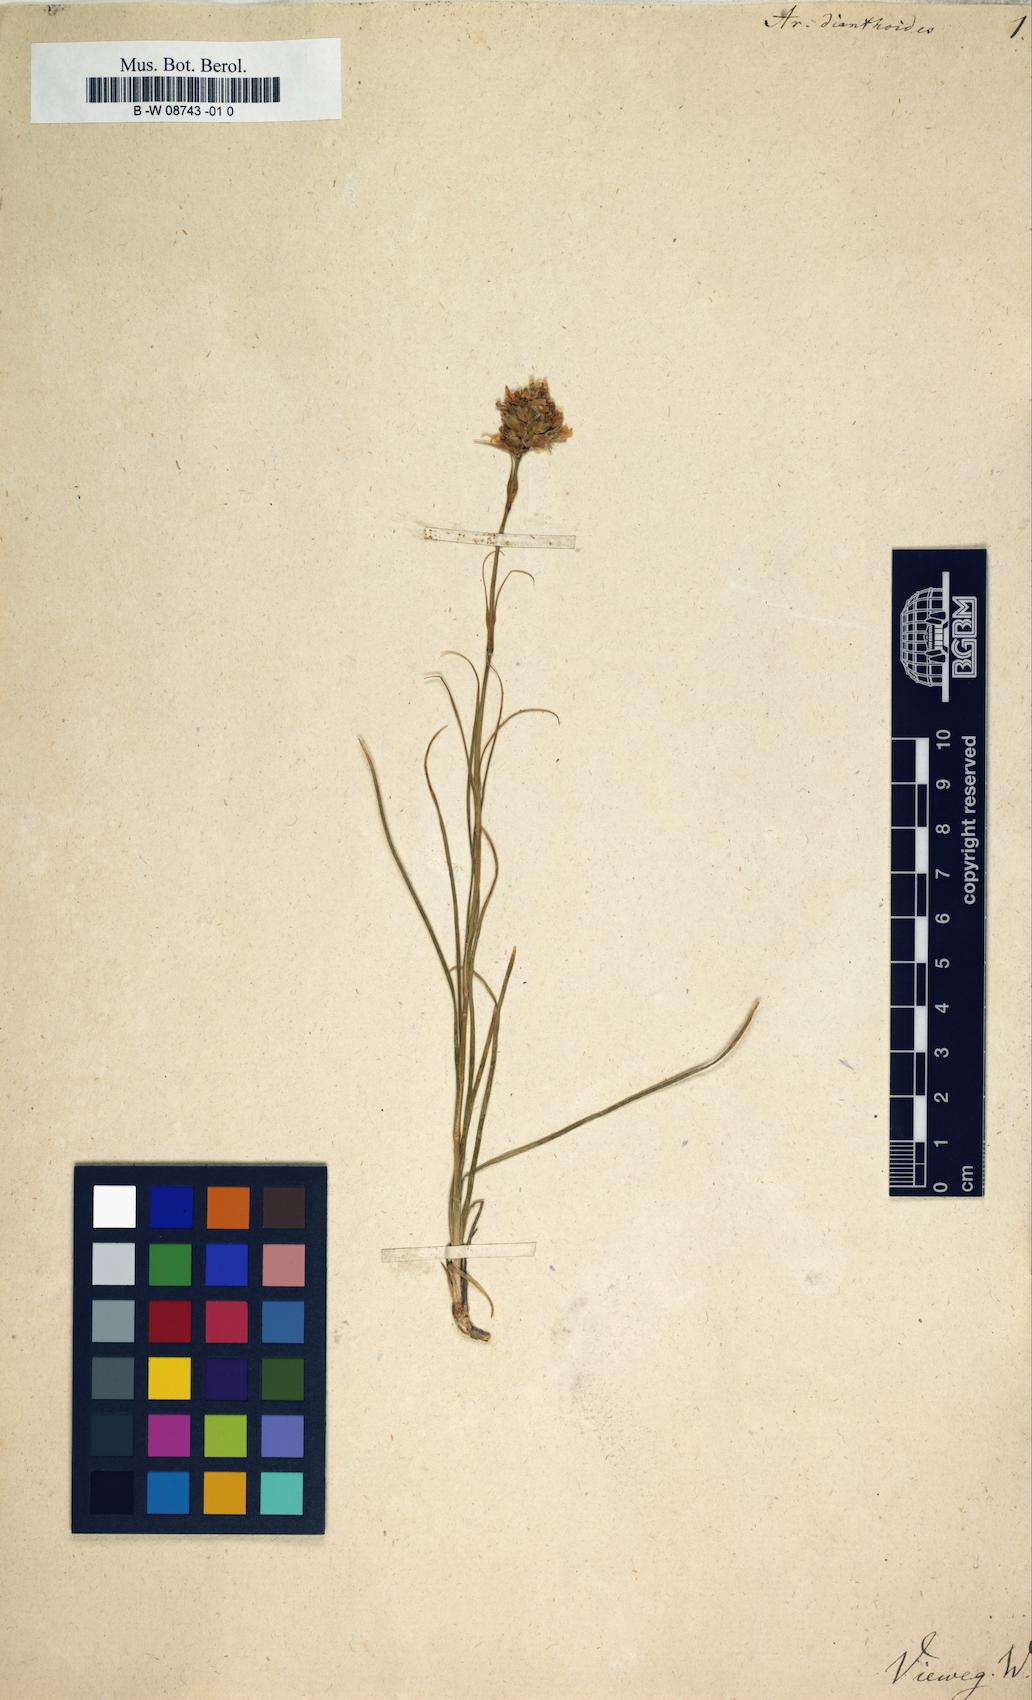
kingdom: Plantae
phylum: Tracheophyta
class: Magnoliopsida
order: Caryophyllales
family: Caryophyllaceae
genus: Eremogone
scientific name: Eremogone dianthoides
